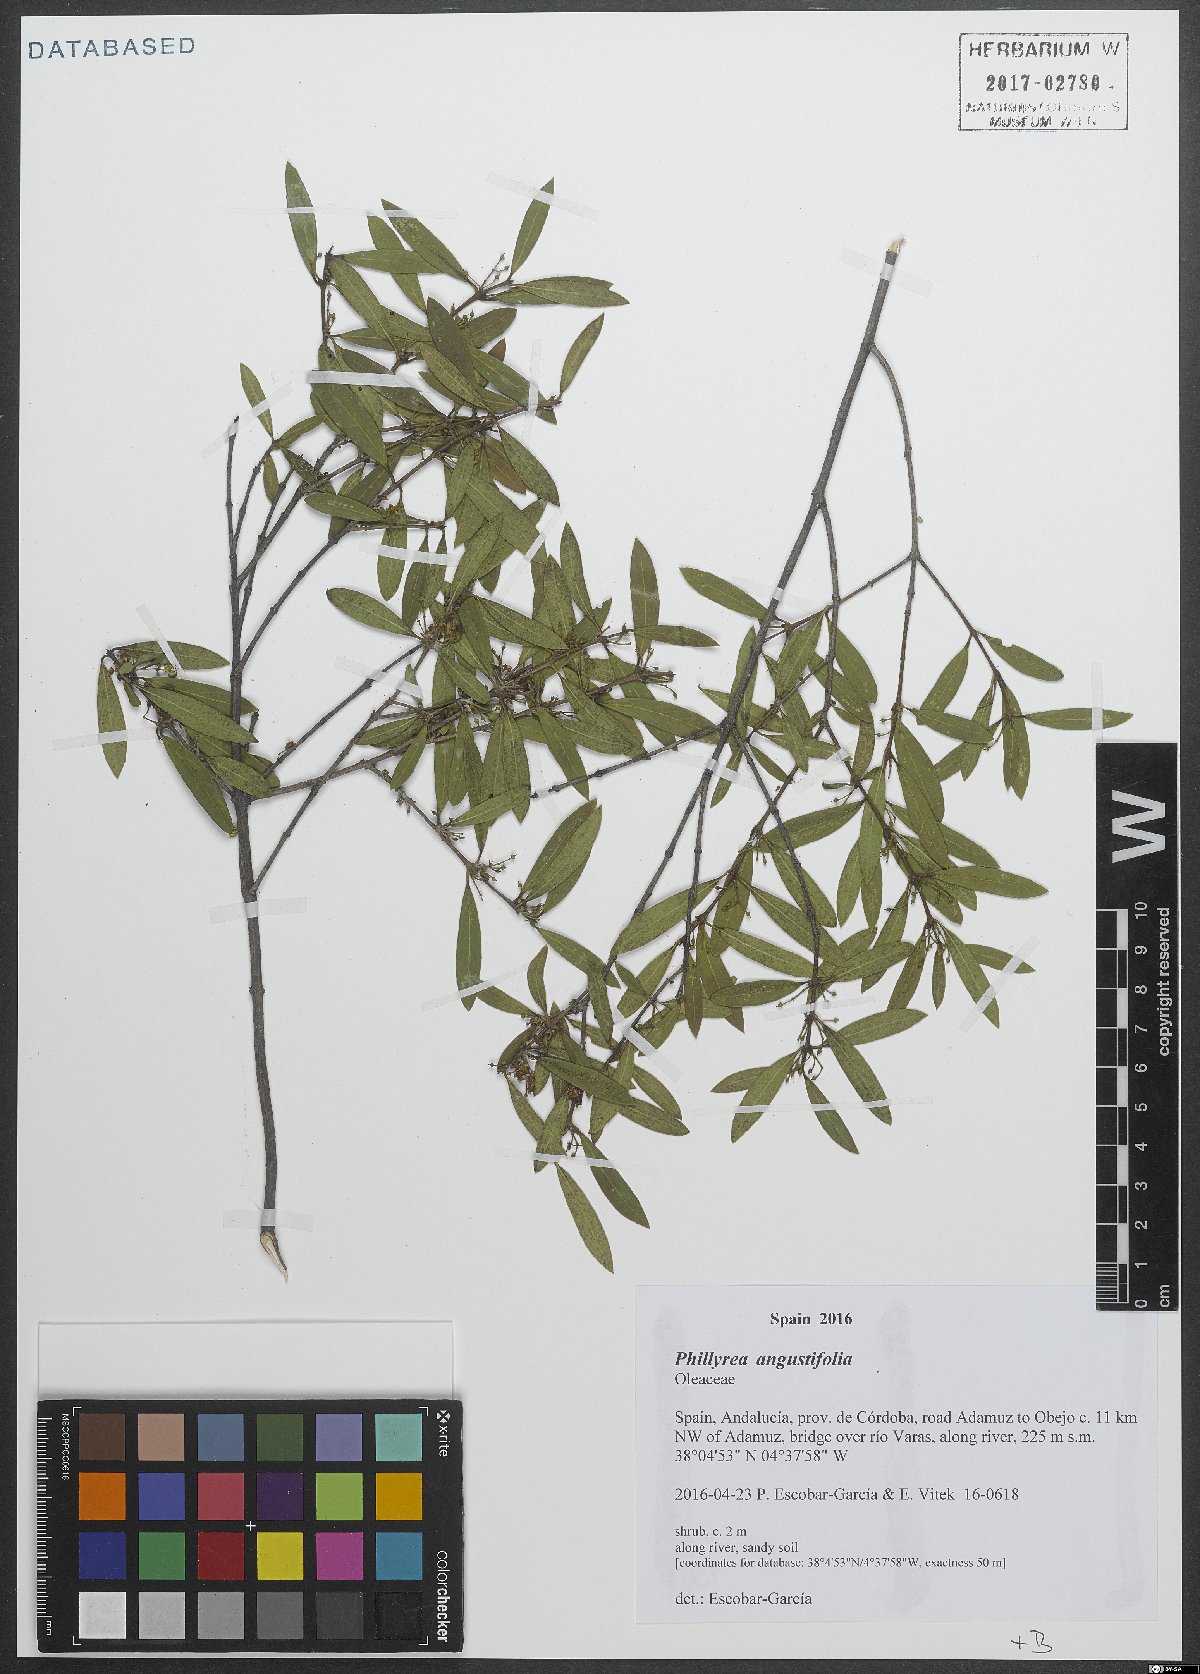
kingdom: Plantae
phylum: Tracheophyta
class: Magnoliopsida
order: Lamiales
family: Oleaceae
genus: Phillyrea
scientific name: Phillyrea angustifolia
